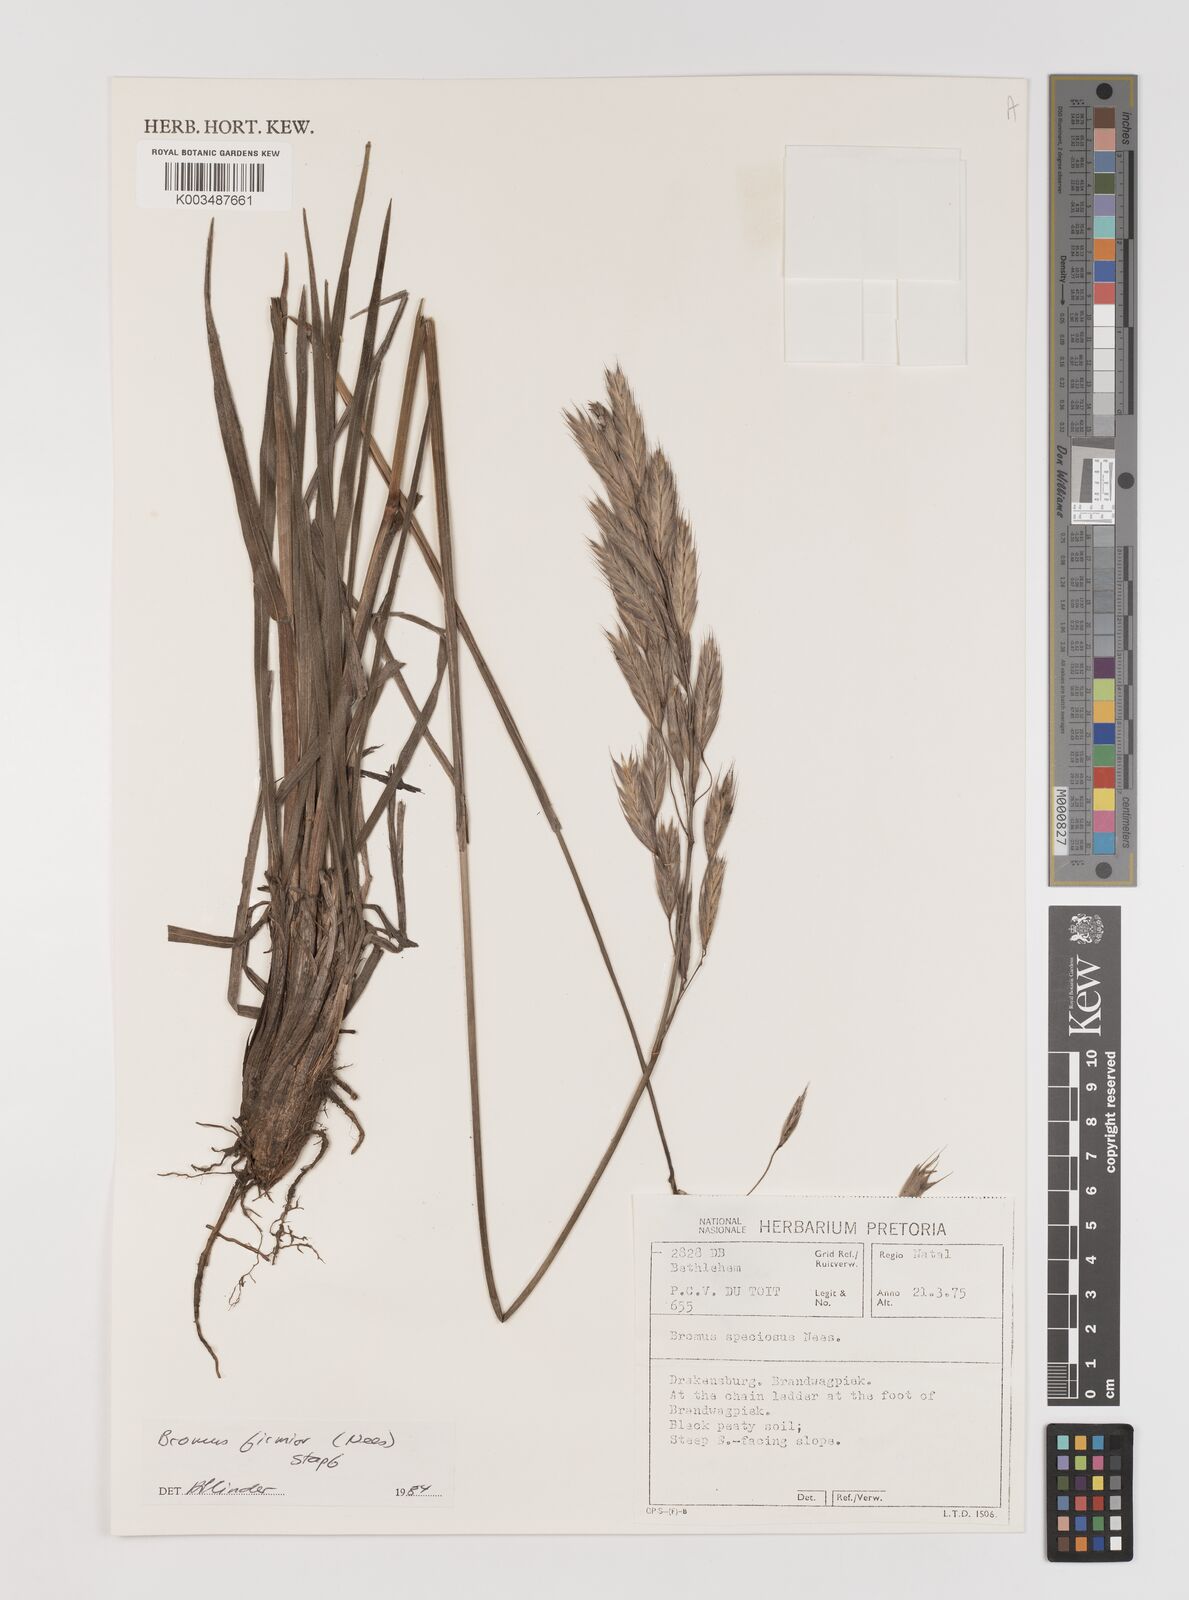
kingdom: Plantae
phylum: Tracheophyta
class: Liliopsida
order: Poales
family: Poaceae
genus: Bromus
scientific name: Bromus firmior
